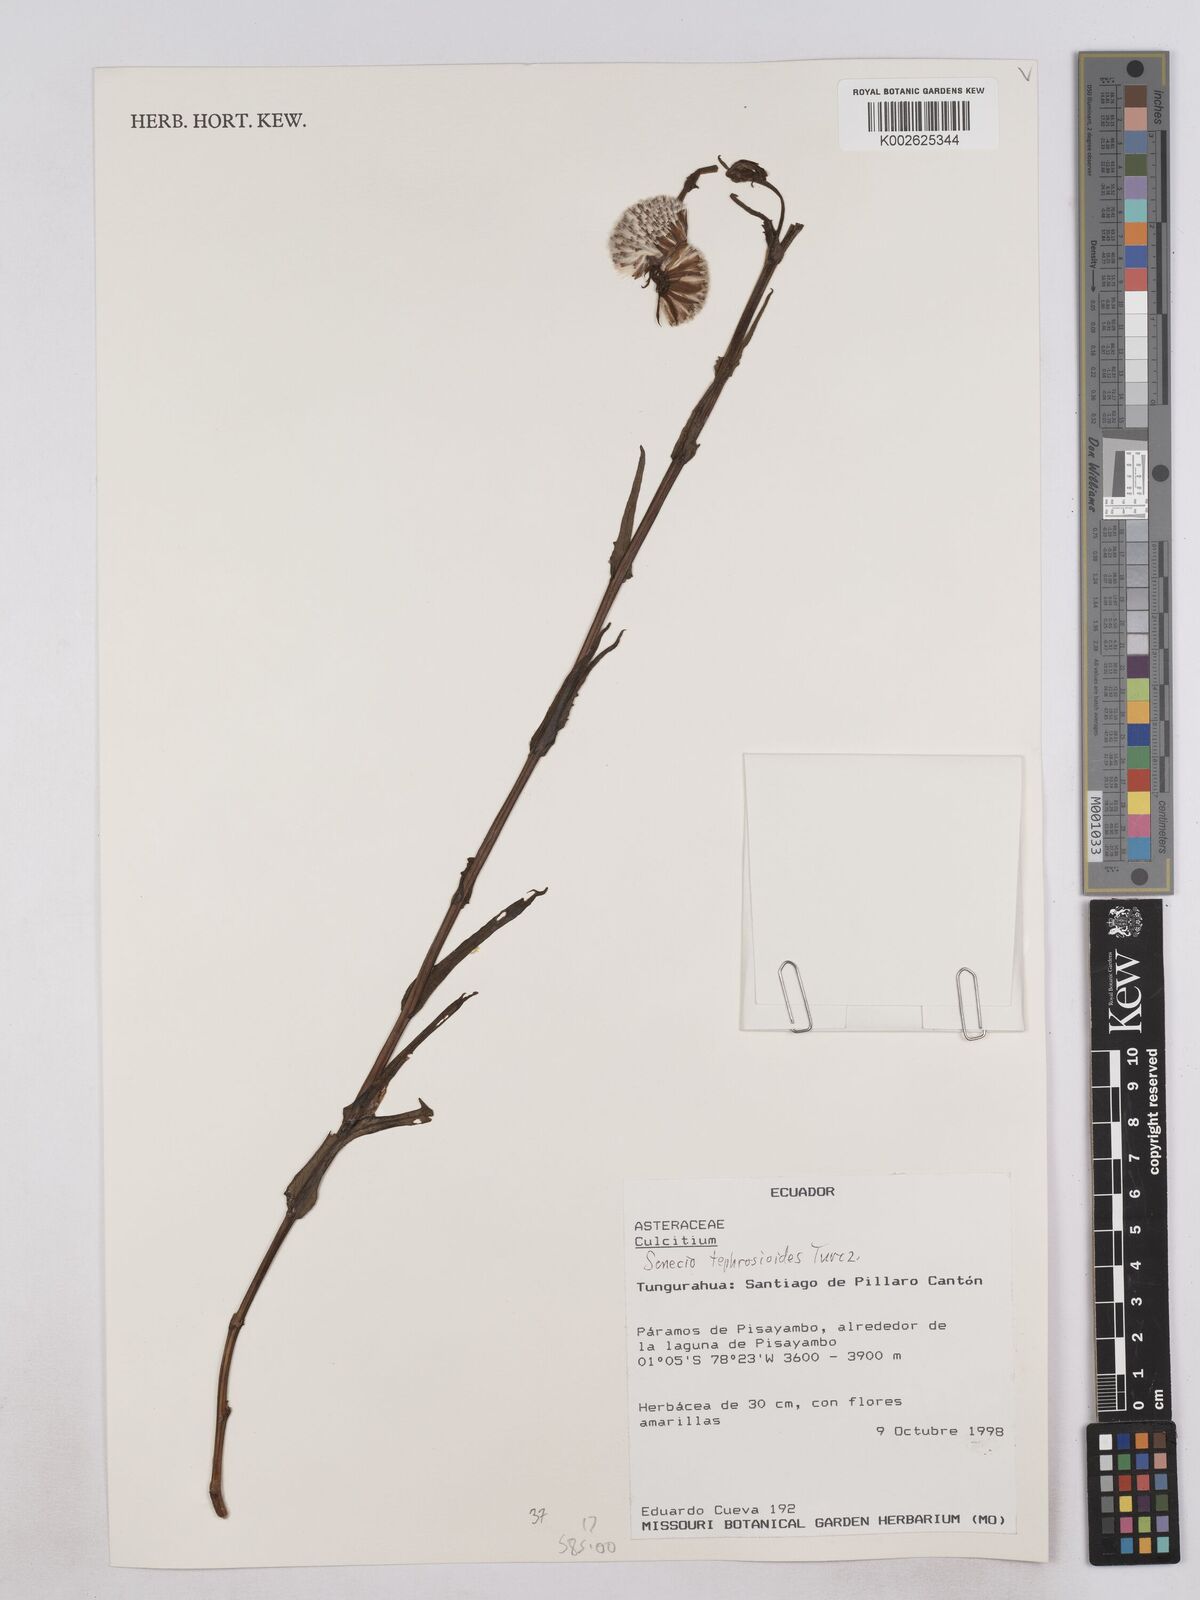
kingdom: Plantae
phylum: Tracheophyta
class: Magnoliopsida
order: Asterales
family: Asteraceae
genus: Senecio
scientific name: Senecio tephrosioides
